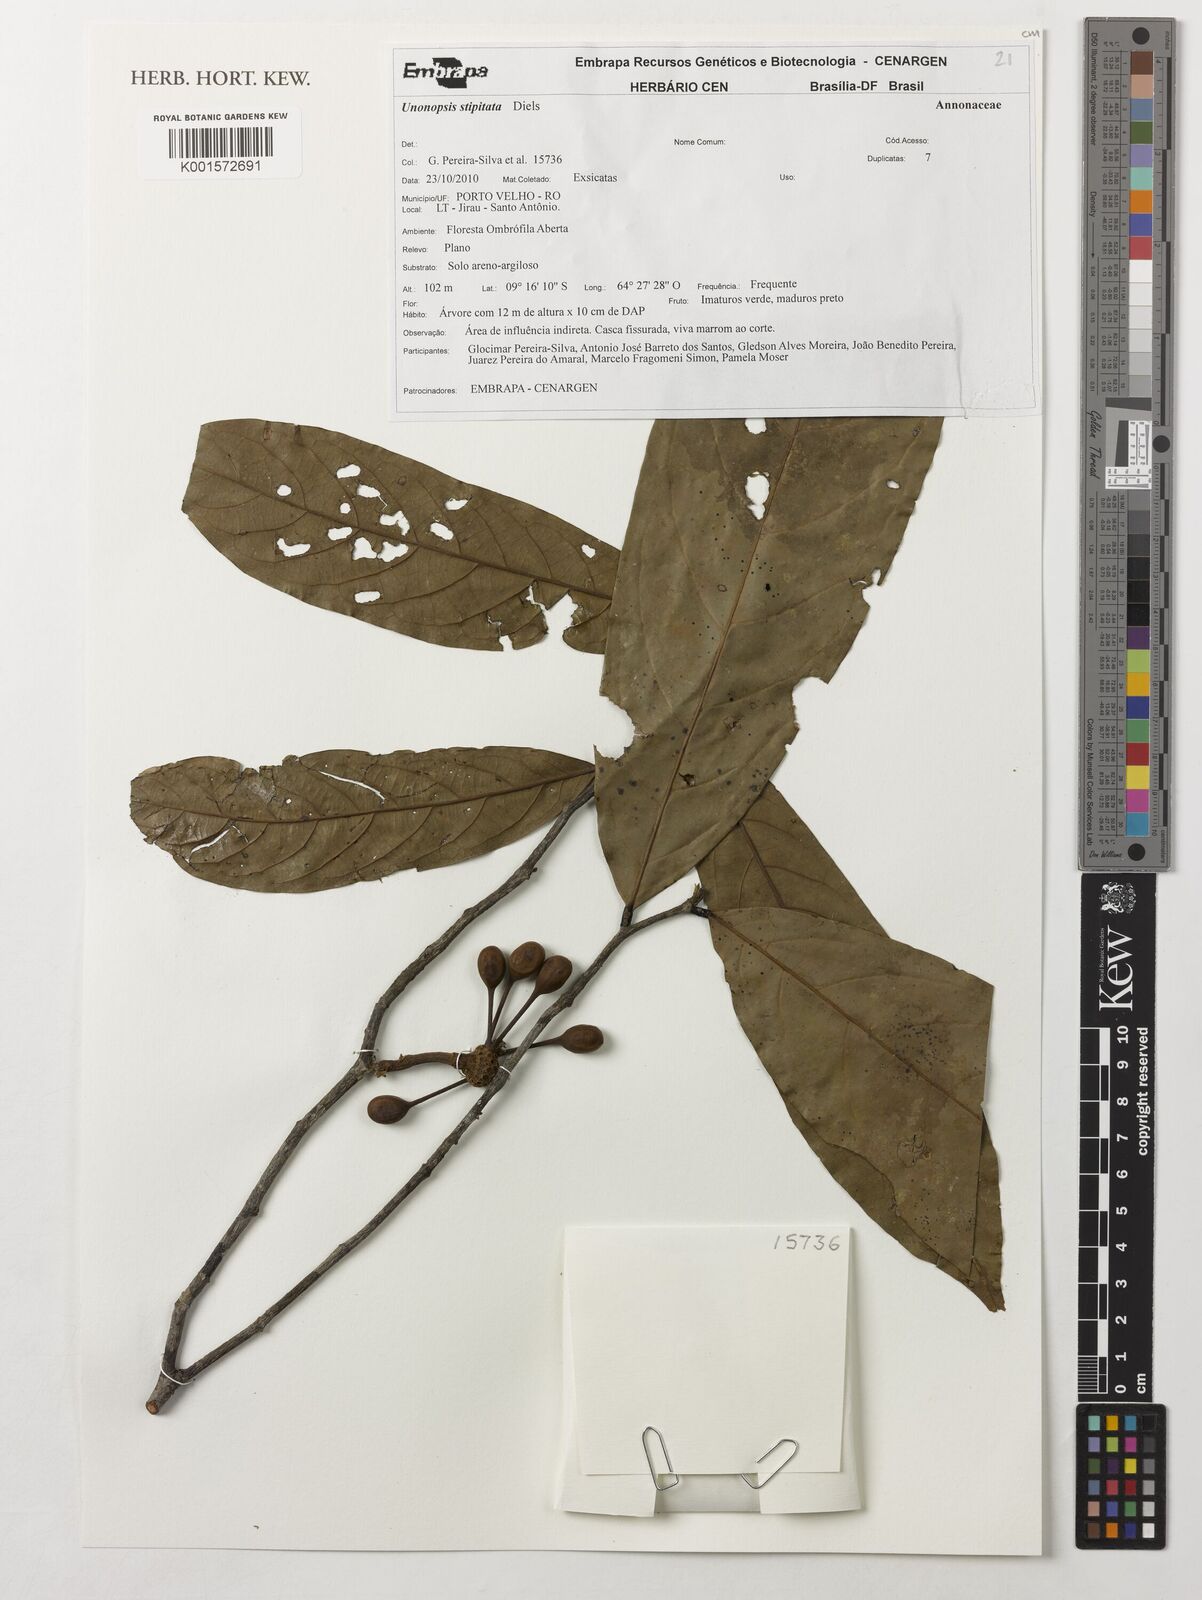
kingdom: Plantae
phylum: Tracheophyta
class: Magnoliopsida
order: Magnoliales
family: Annonaceae
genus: Unonopsis
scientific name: Unonopsis stipitata
